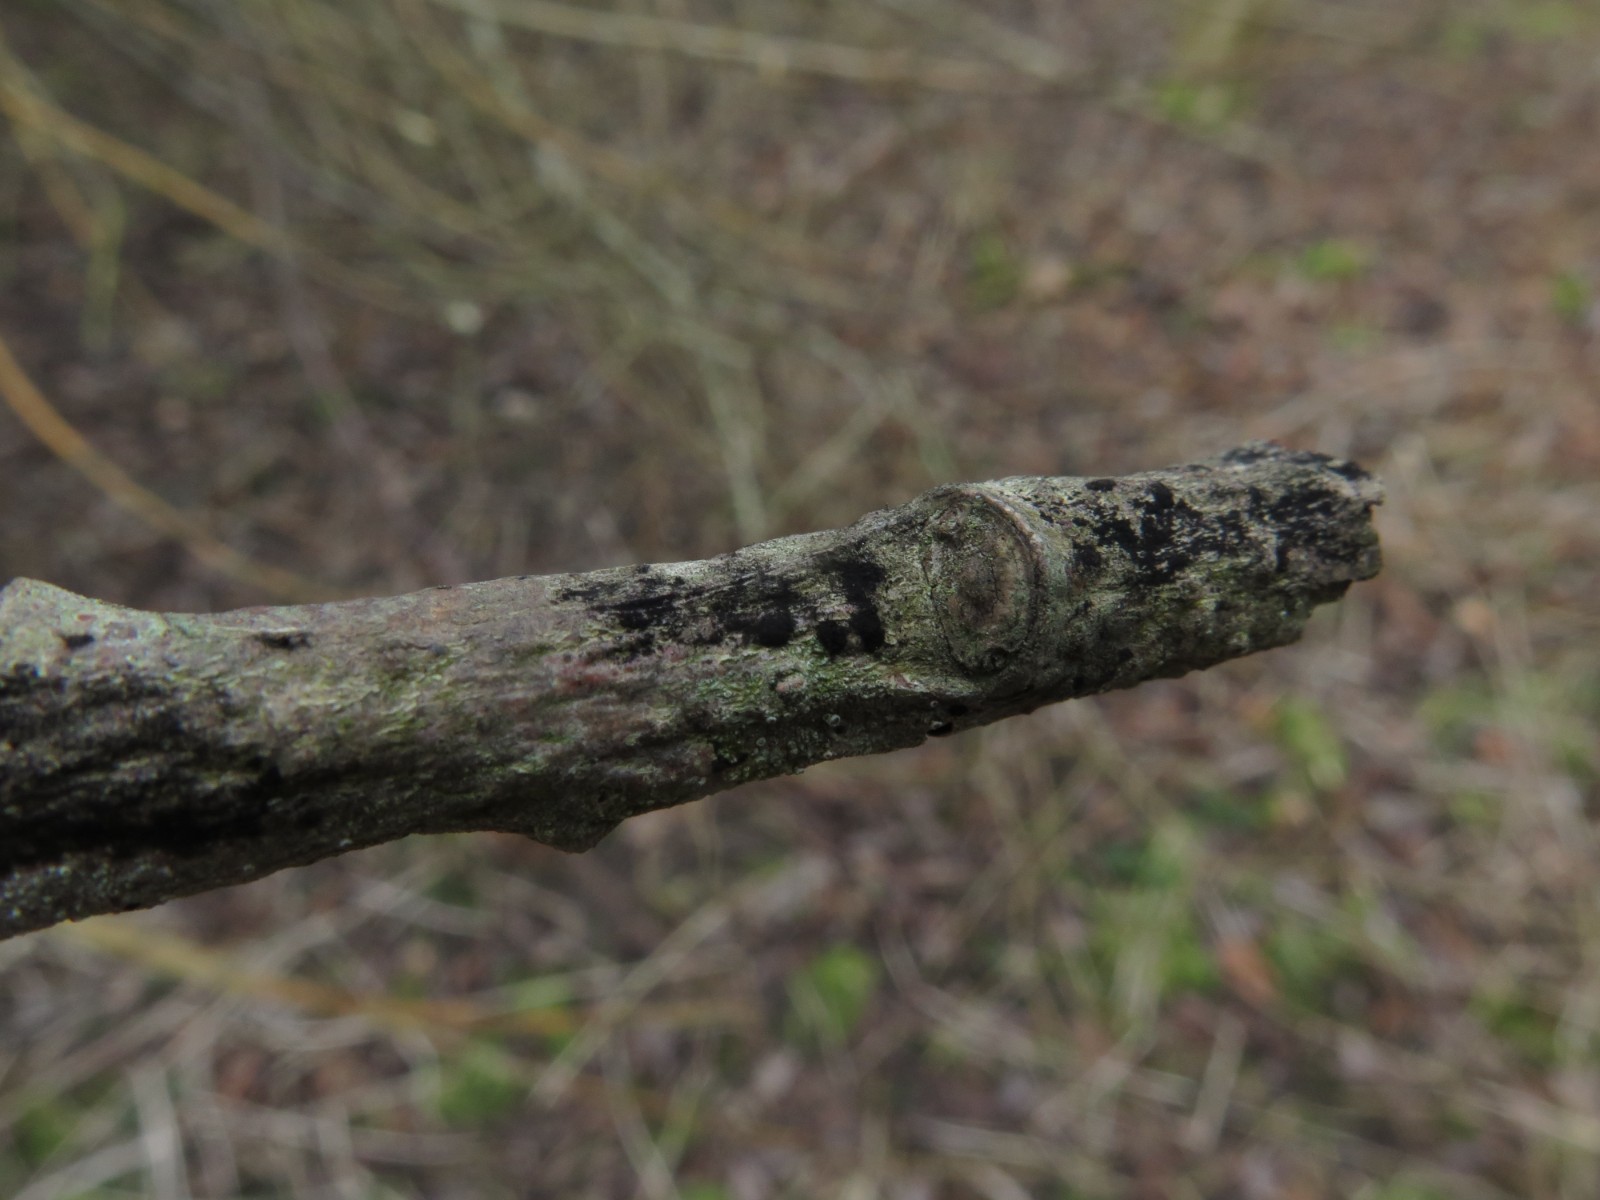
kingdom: Fungi
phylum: Ascomycota
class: Leotiomycetes
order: Helotiales
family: Mollisiaceae
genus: Trimmatostroma
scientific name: Trimmatostroma betulinum
